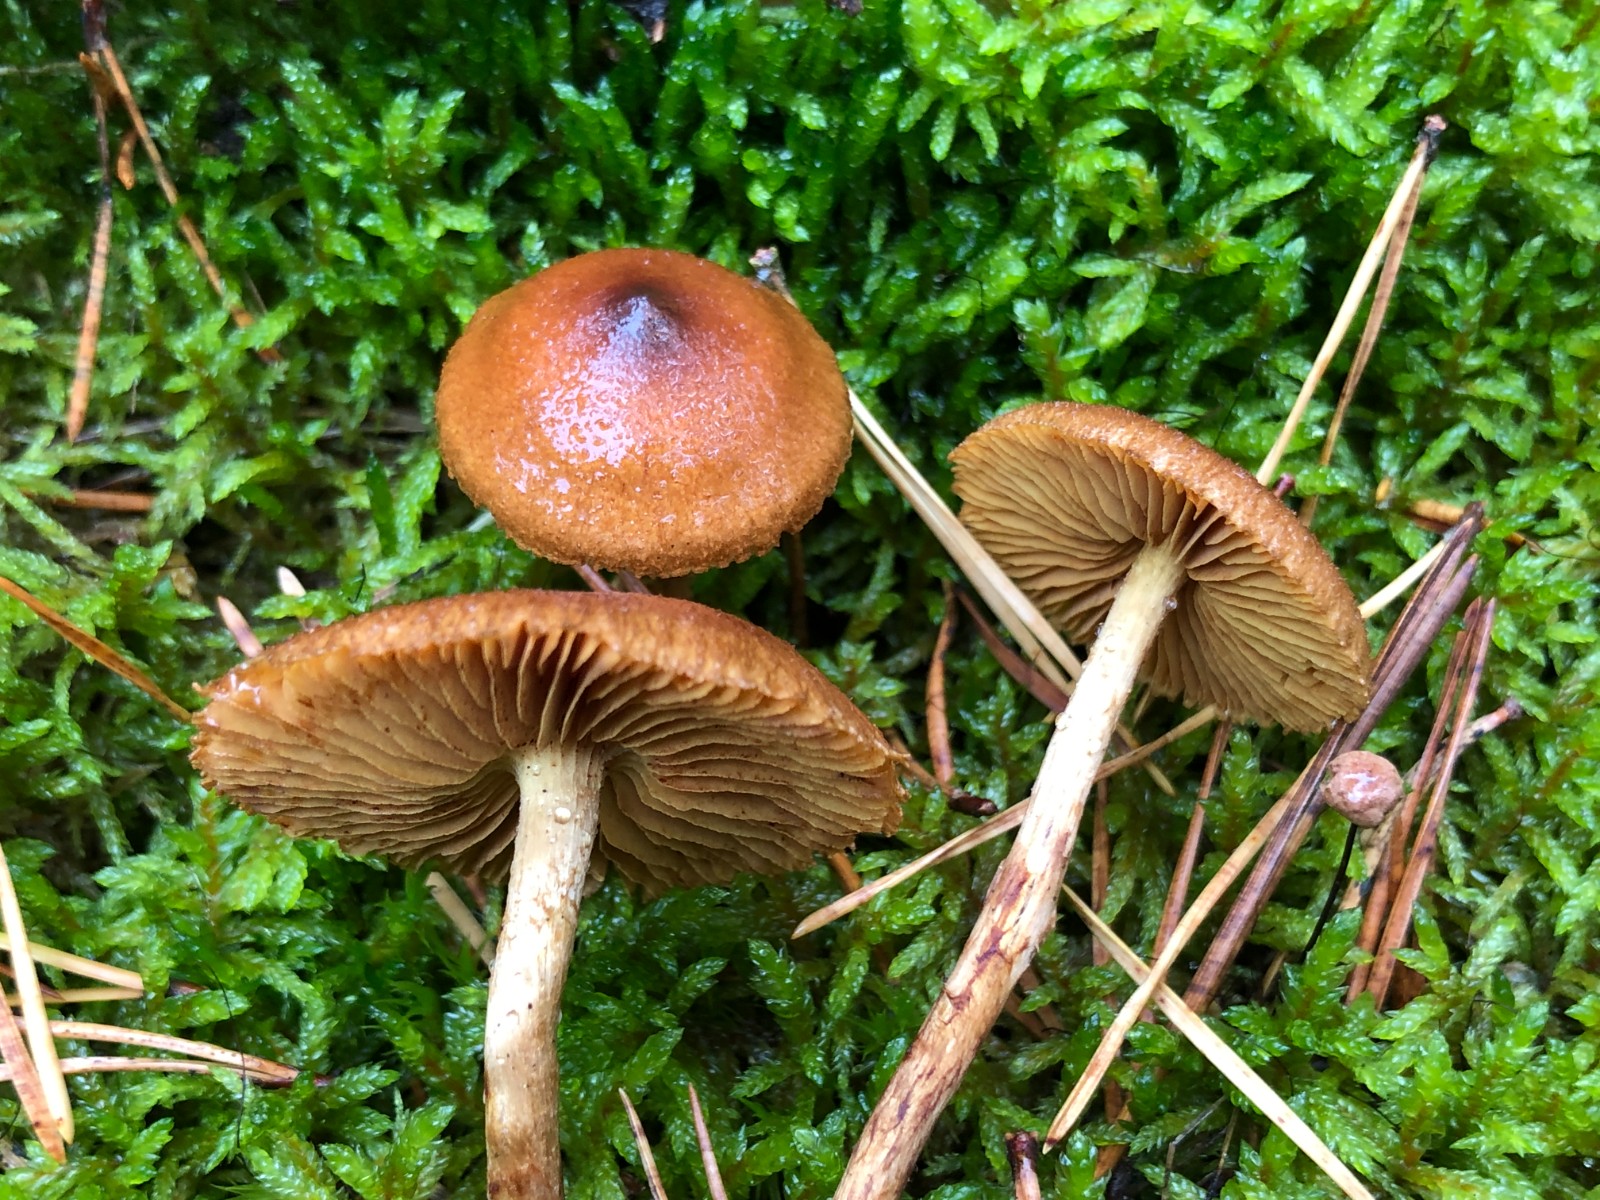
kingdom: Fungi
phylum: Basidiomycota
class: Agaricomycetes
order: Agaricales
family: Cortinariaceae
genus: Cortinarius
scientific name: Cortinarius
